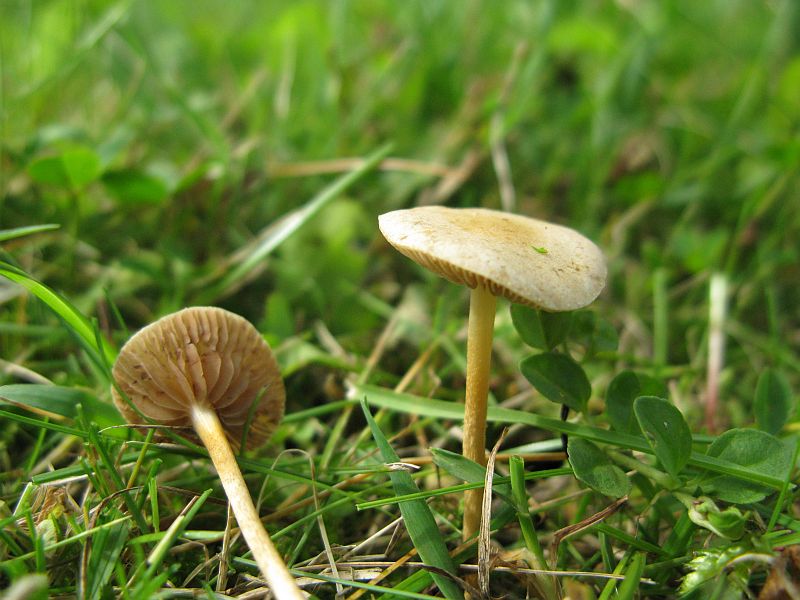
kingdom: Fungi
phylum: Basidiomycota
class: Agaricomycetes
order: Agaricales
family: Strophariaceae
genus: Agrocybe
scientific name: Agrocybe pediades
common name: almindelig agerhat
